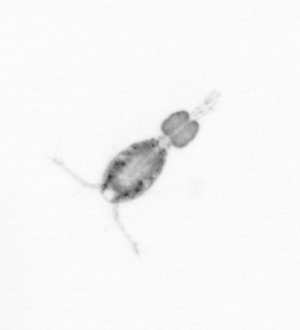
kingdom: Animalia
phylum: Arthropoda
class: Copepoda
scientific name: Copepoda
